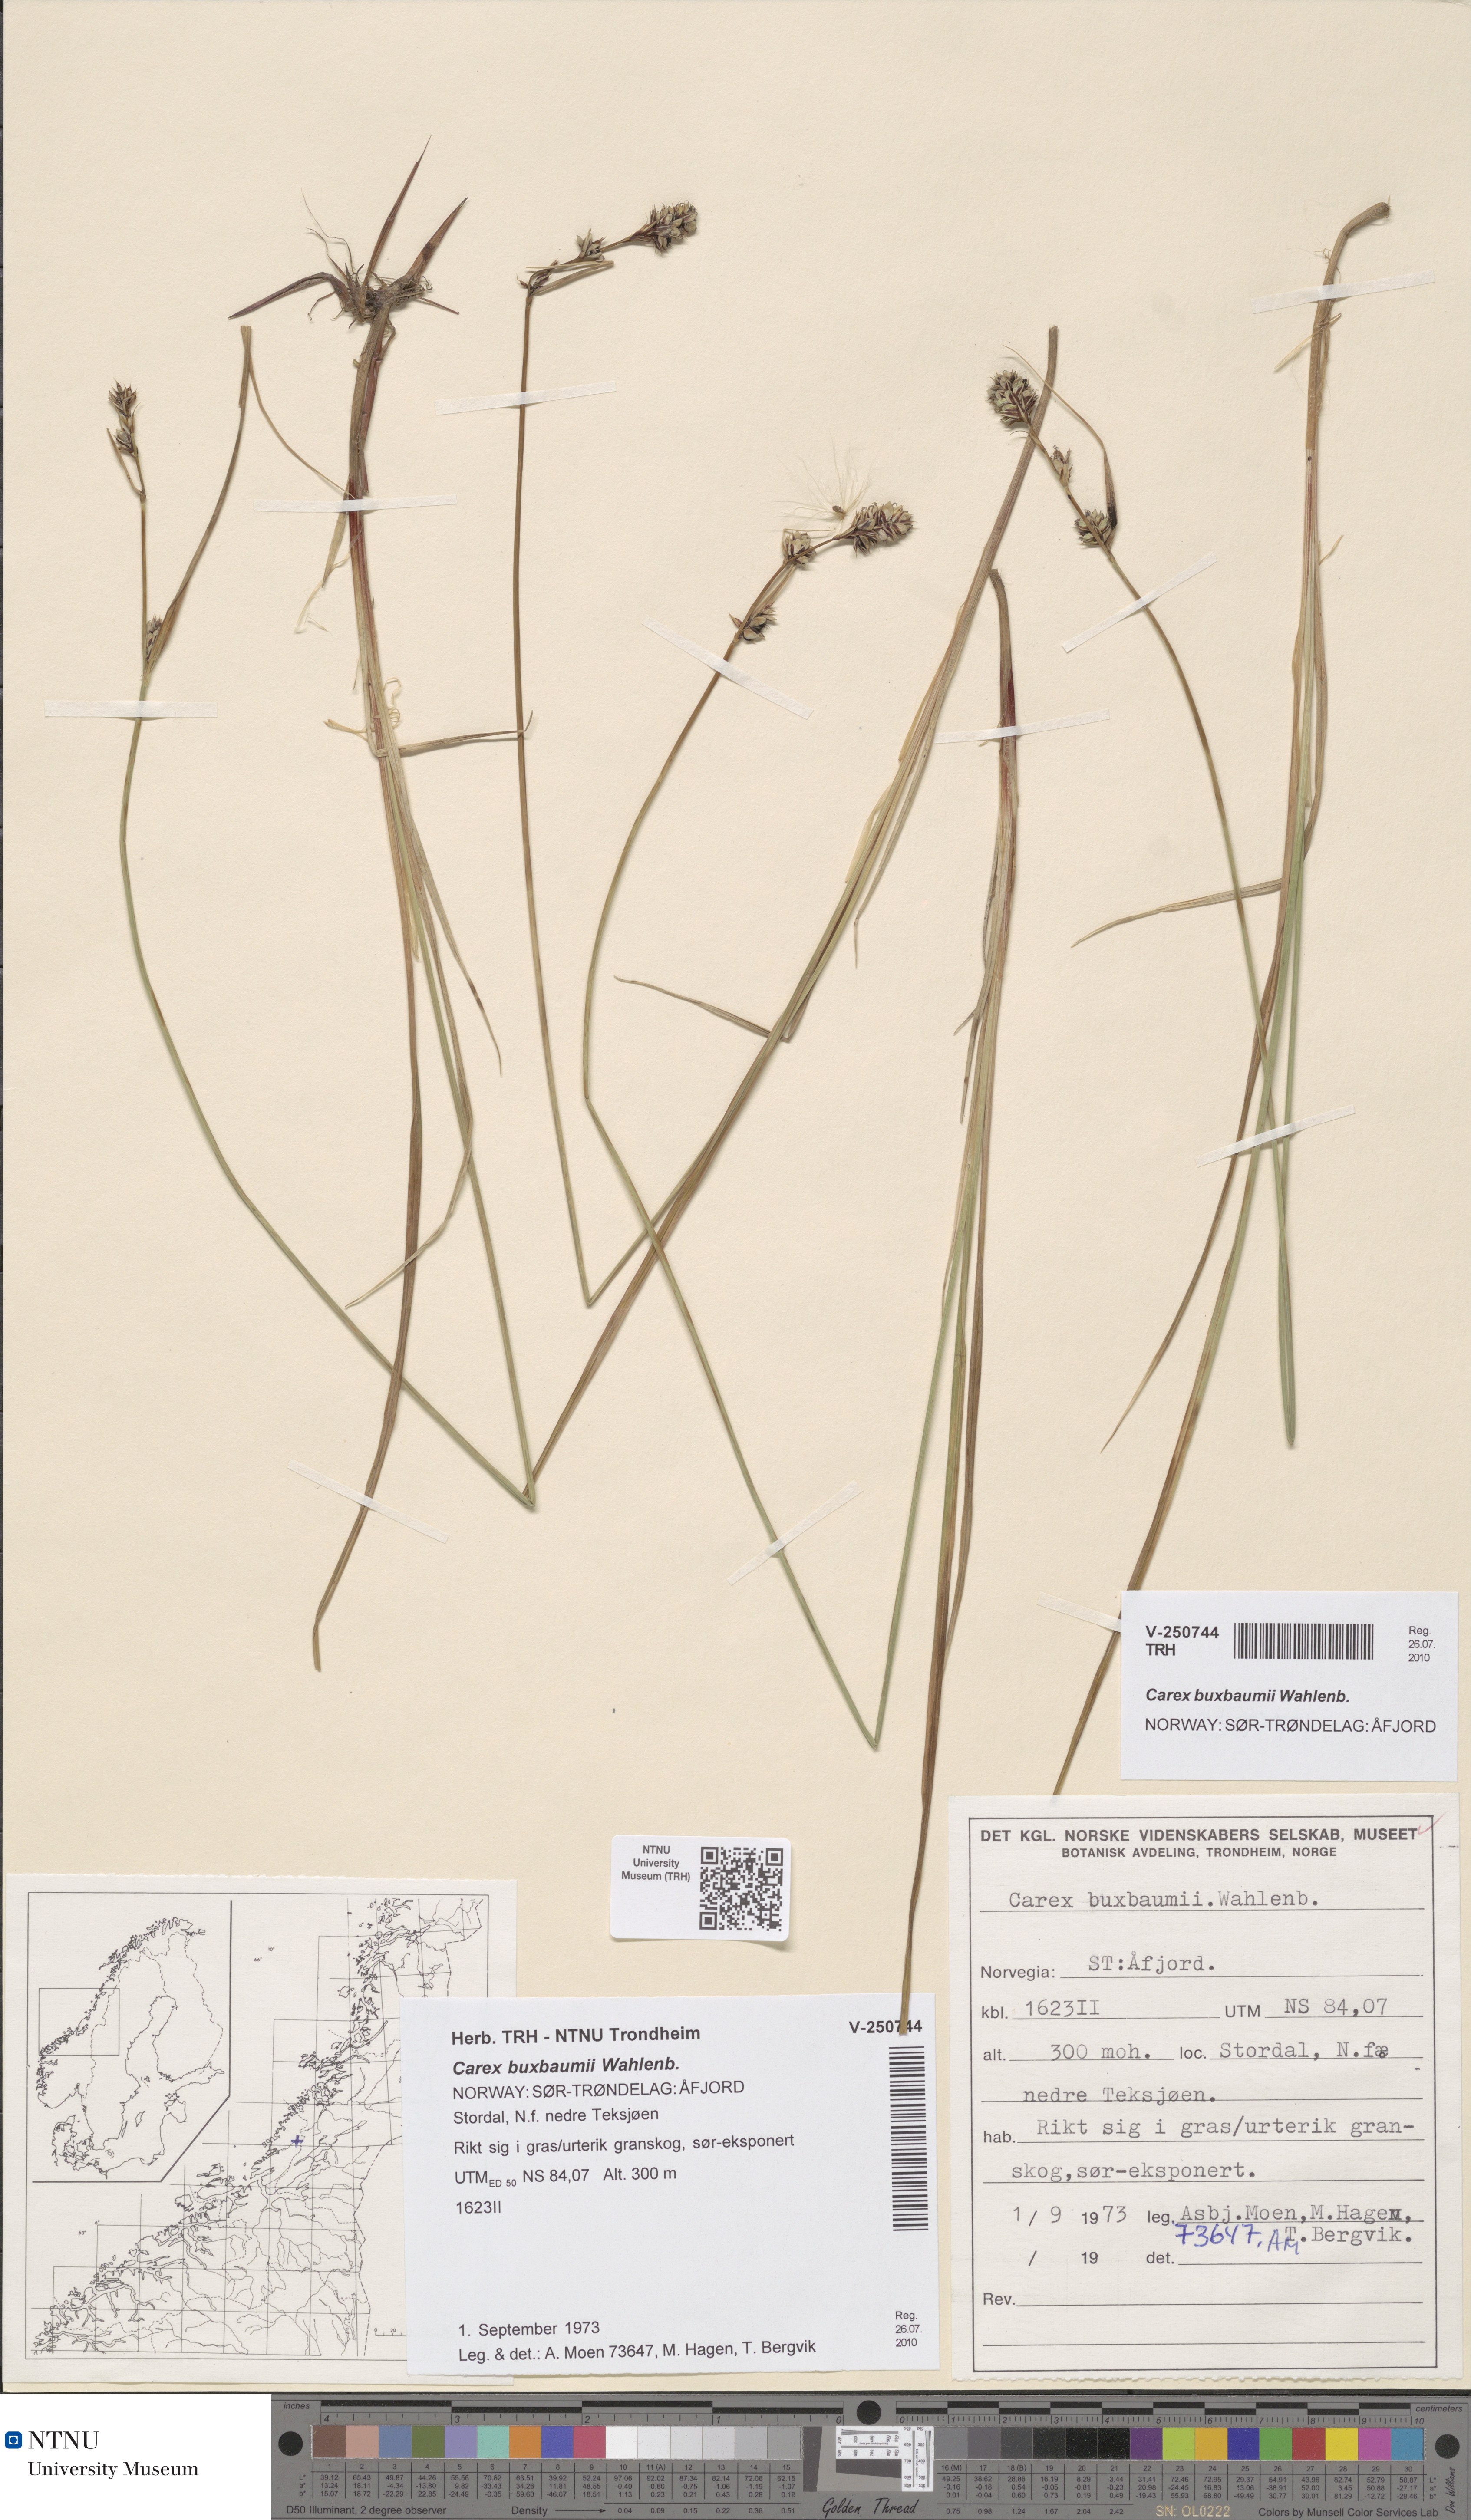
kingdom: Plantae
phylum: Tracheophyta
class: Liliopsida
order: Poales
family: Cyperaceae
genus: Carex
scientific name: Carex buxbaumii
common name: Club sedge
